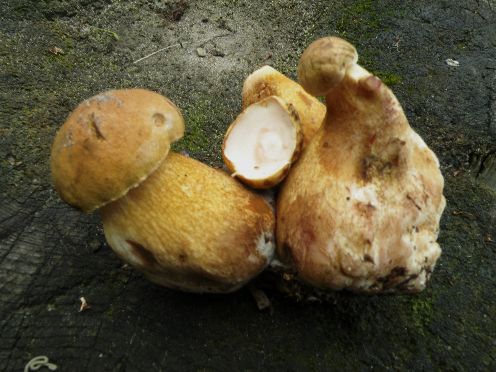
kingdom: Fungi
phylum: Basidiomycota
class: Agaricomycetes
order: Boletales
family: Boletaceae
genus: Tylopilus
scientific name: Tylopilus felleus
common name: galderørhat
